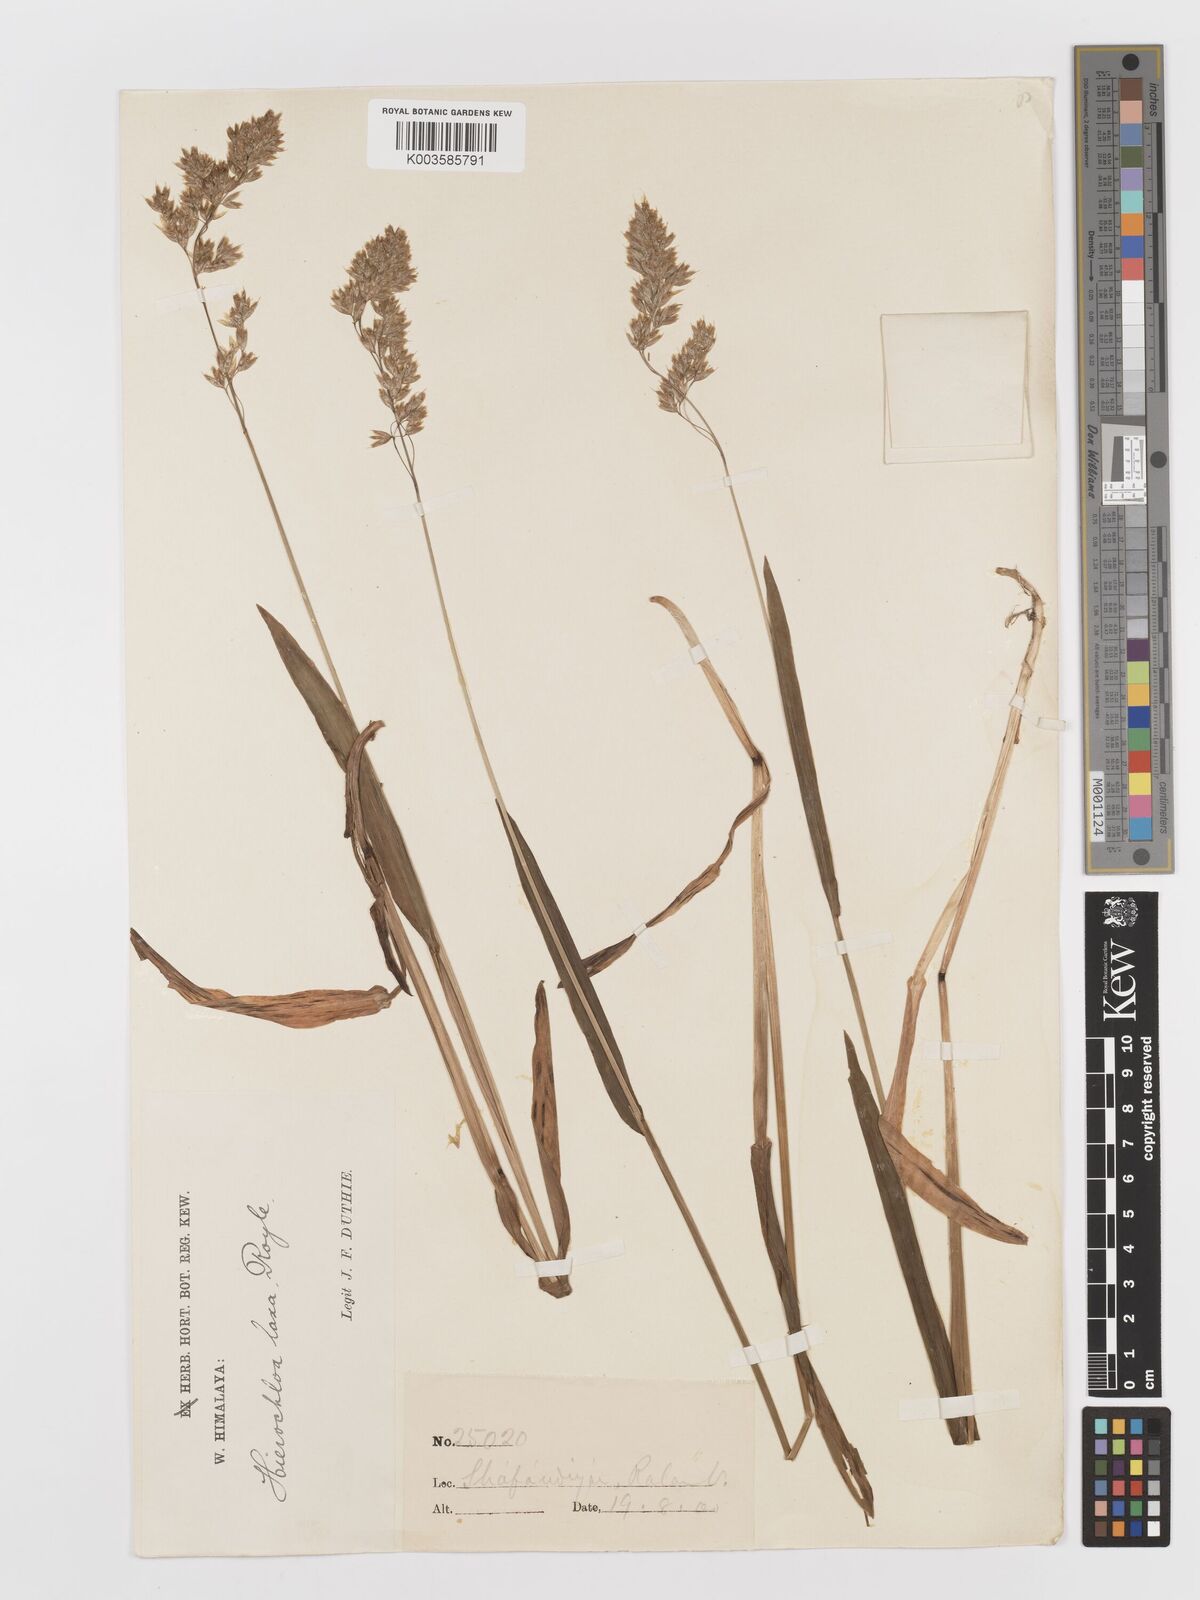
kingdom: Plantae
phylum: Tracheophyta
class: Liliopsida
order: Poales
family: Poaceae
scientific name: Poaceae
